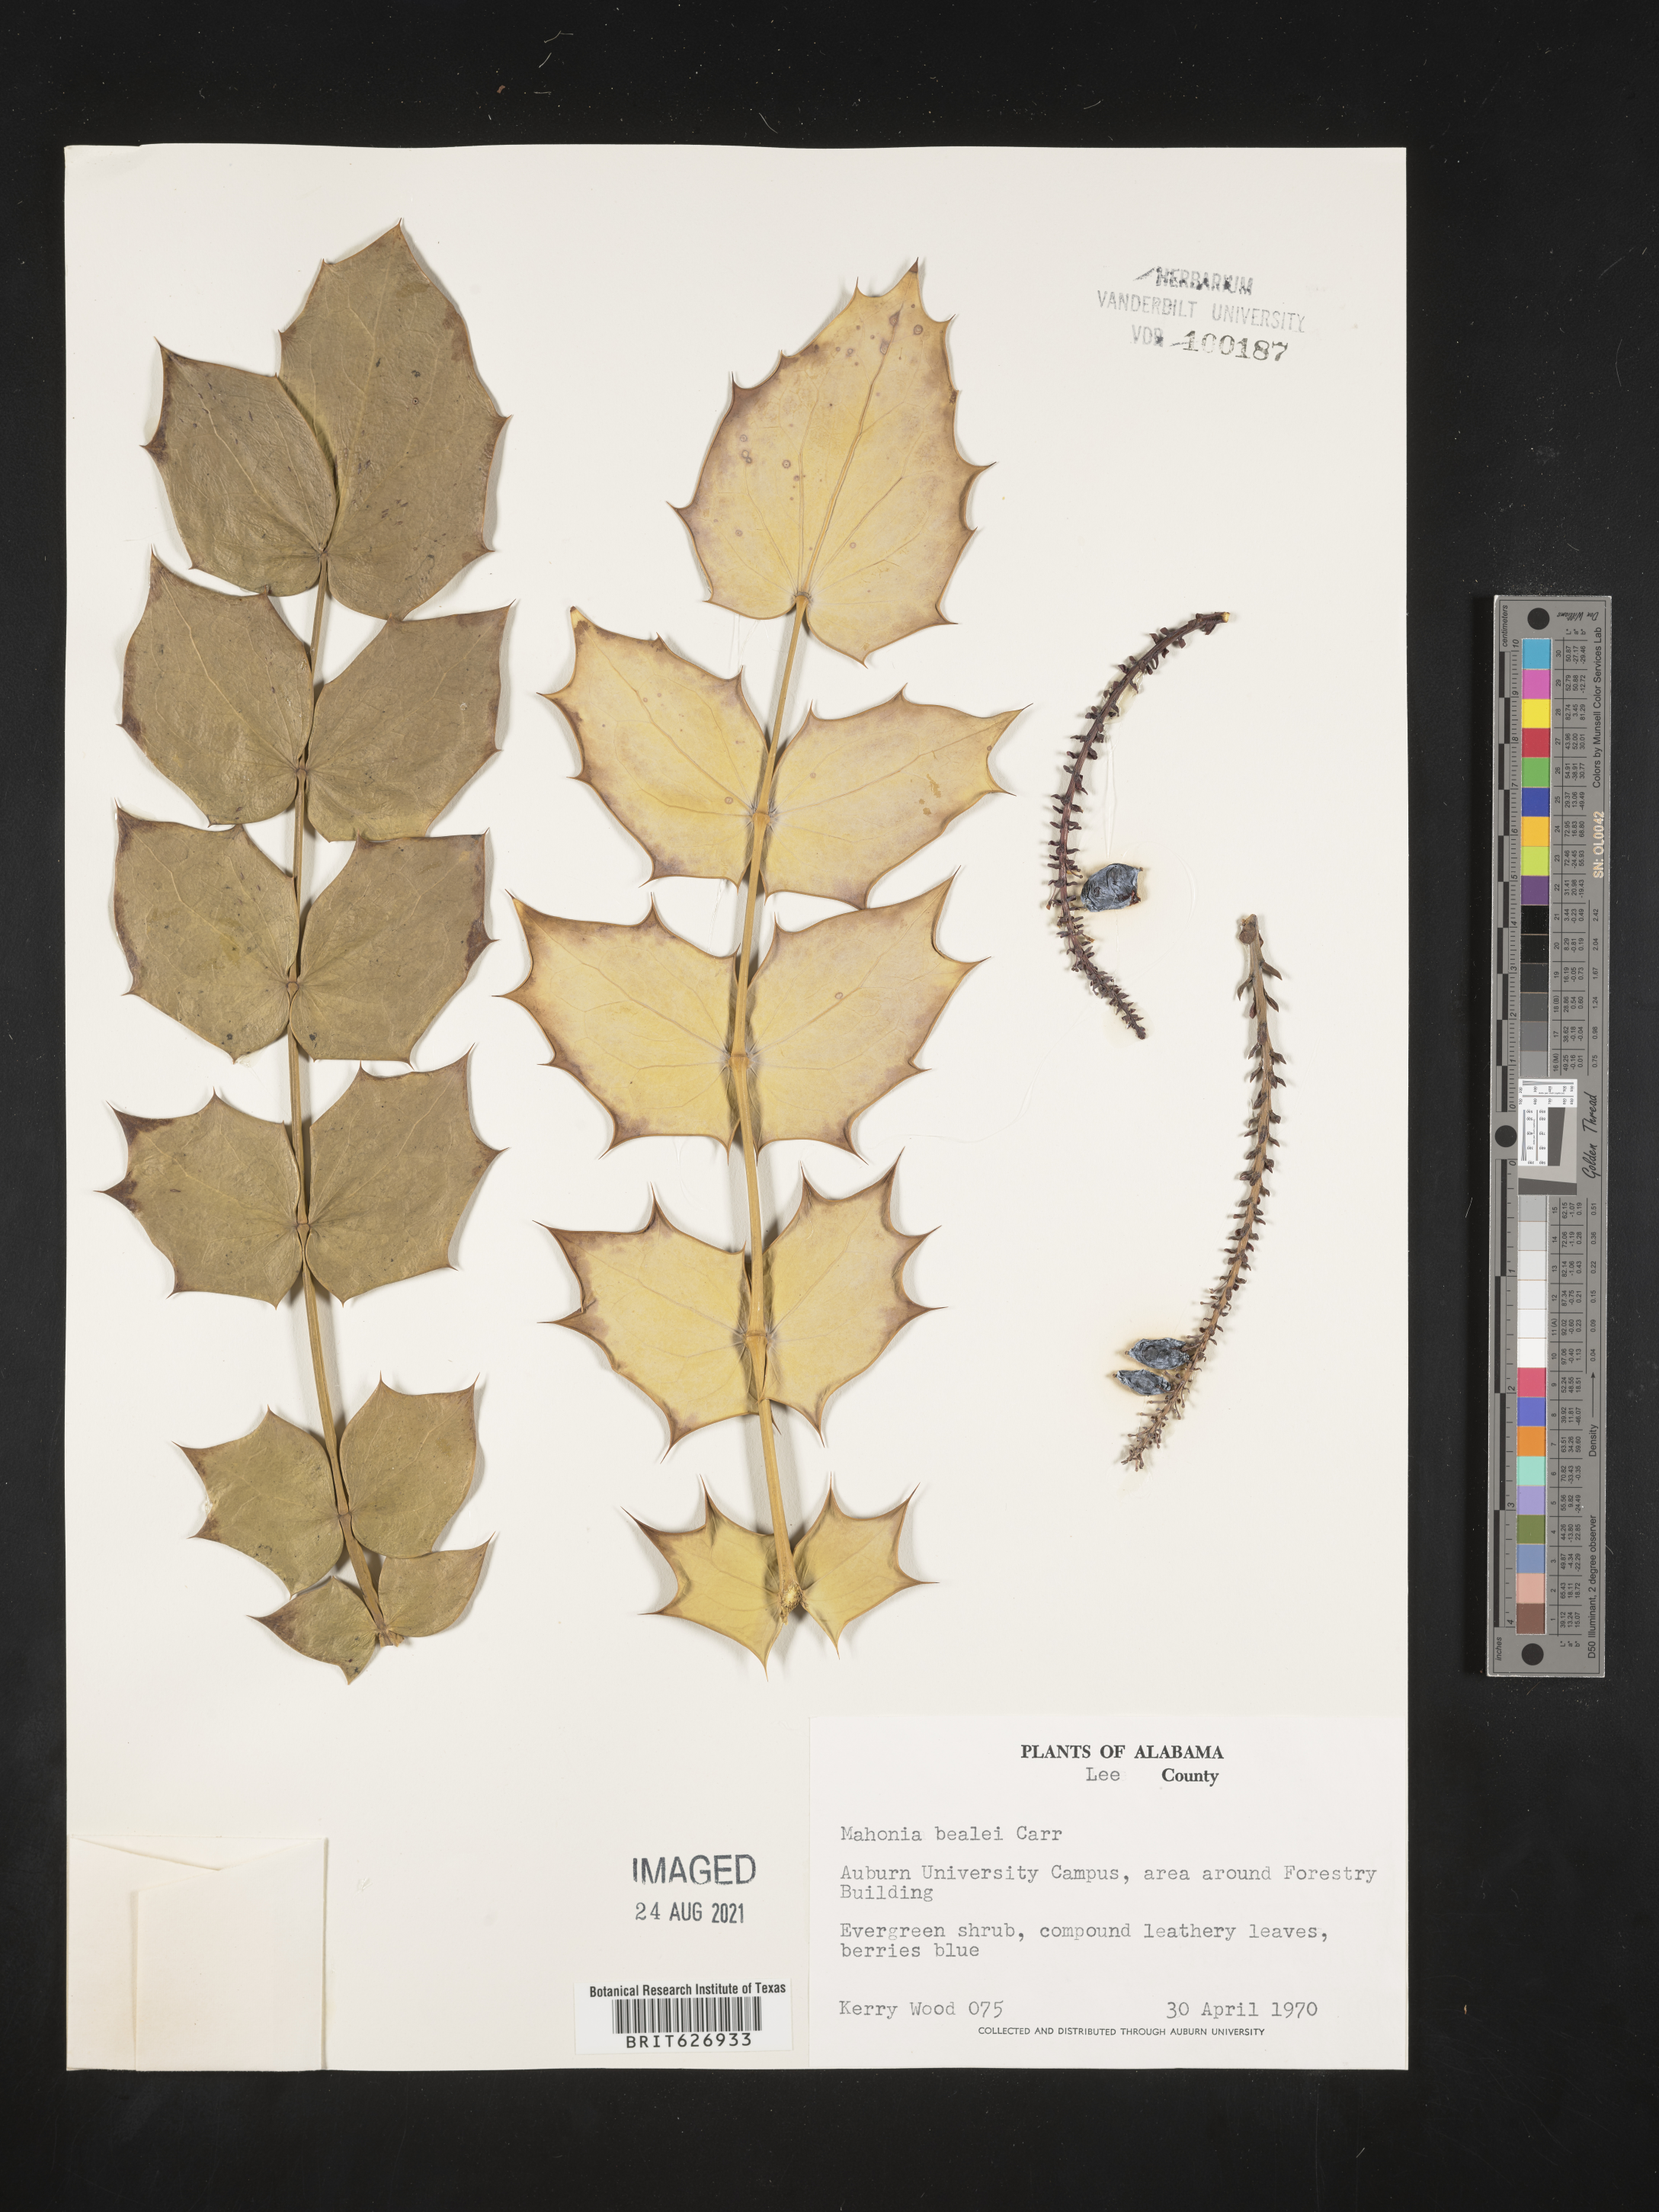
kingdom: Plantae
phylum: Tracheophyta
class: Magnoliopsida
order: Ranunculales
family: Berberidaceae
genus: Berberis
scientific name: Berberis darwinii
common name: Darwin's barberry
